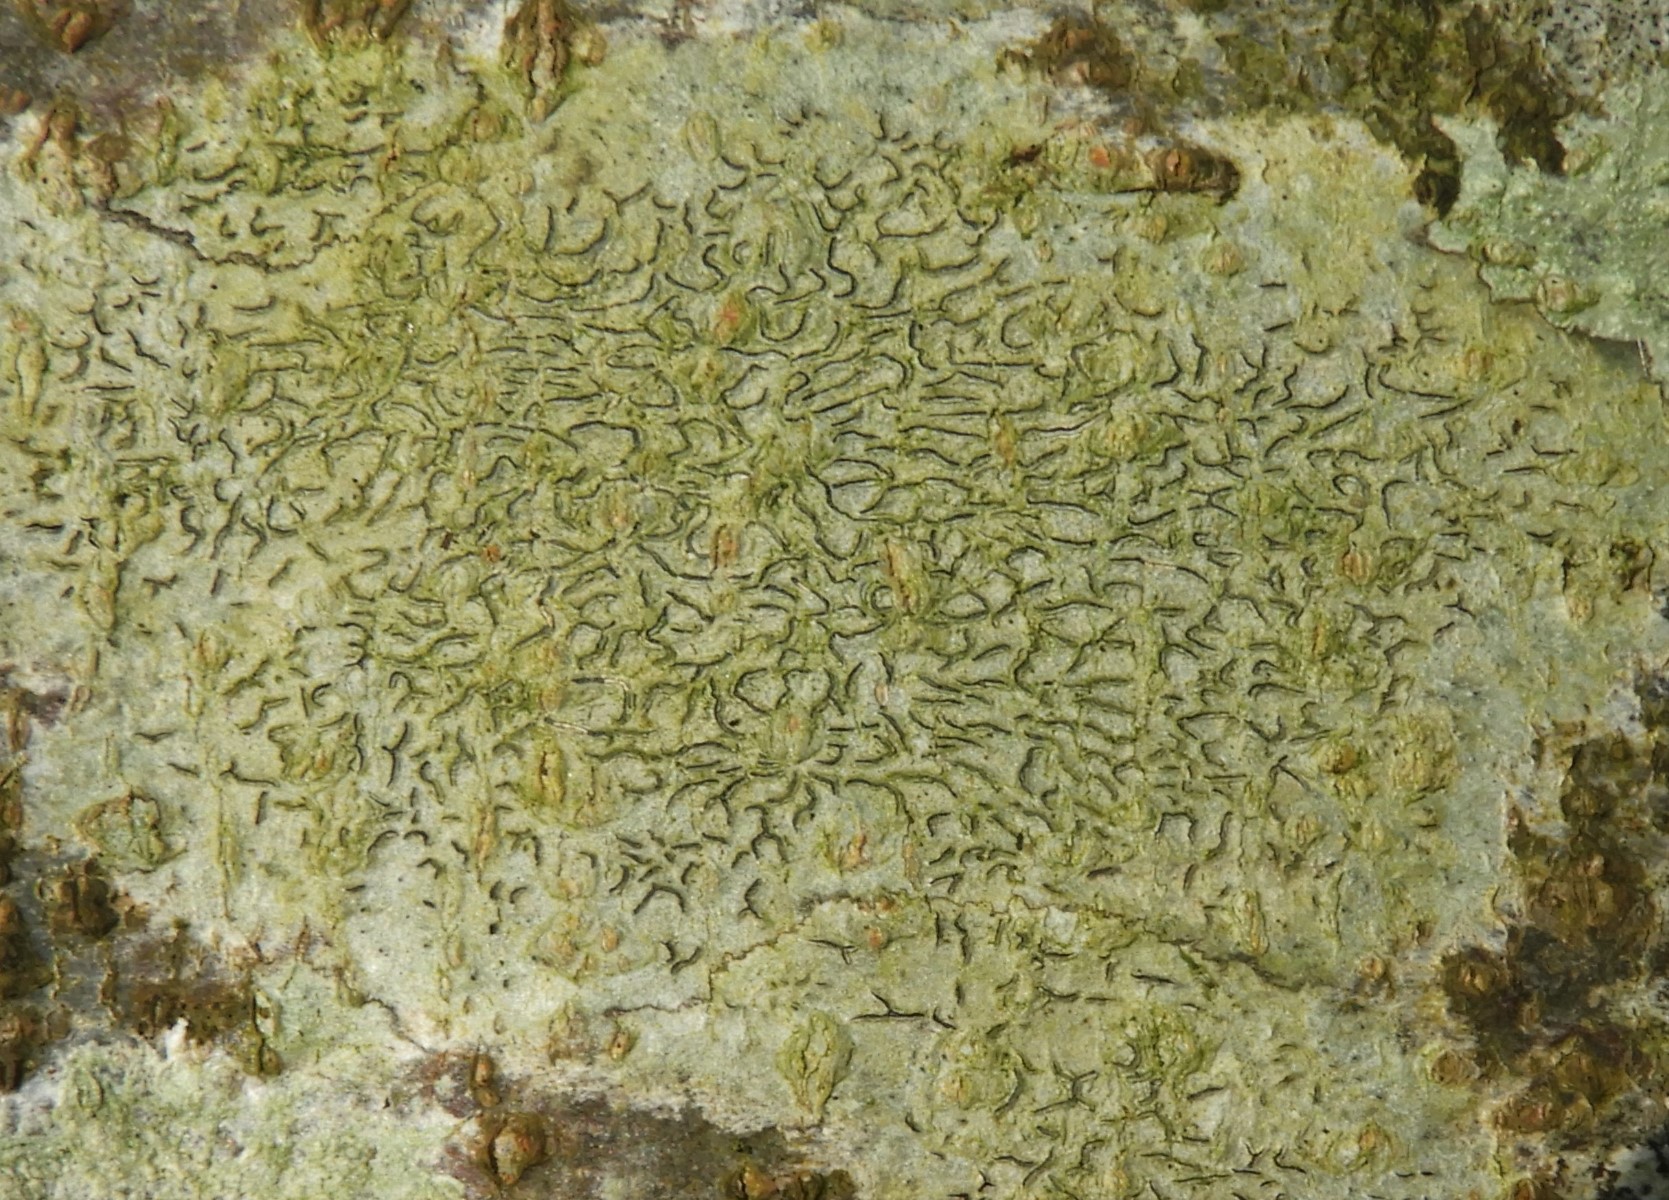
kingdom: Fungi
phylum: Ascomycota
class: Lecanoromycetes
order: Ostropales
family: Graphidaceae
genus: Graphis
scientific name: Graphis scripta
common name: almindelig skriftlav
